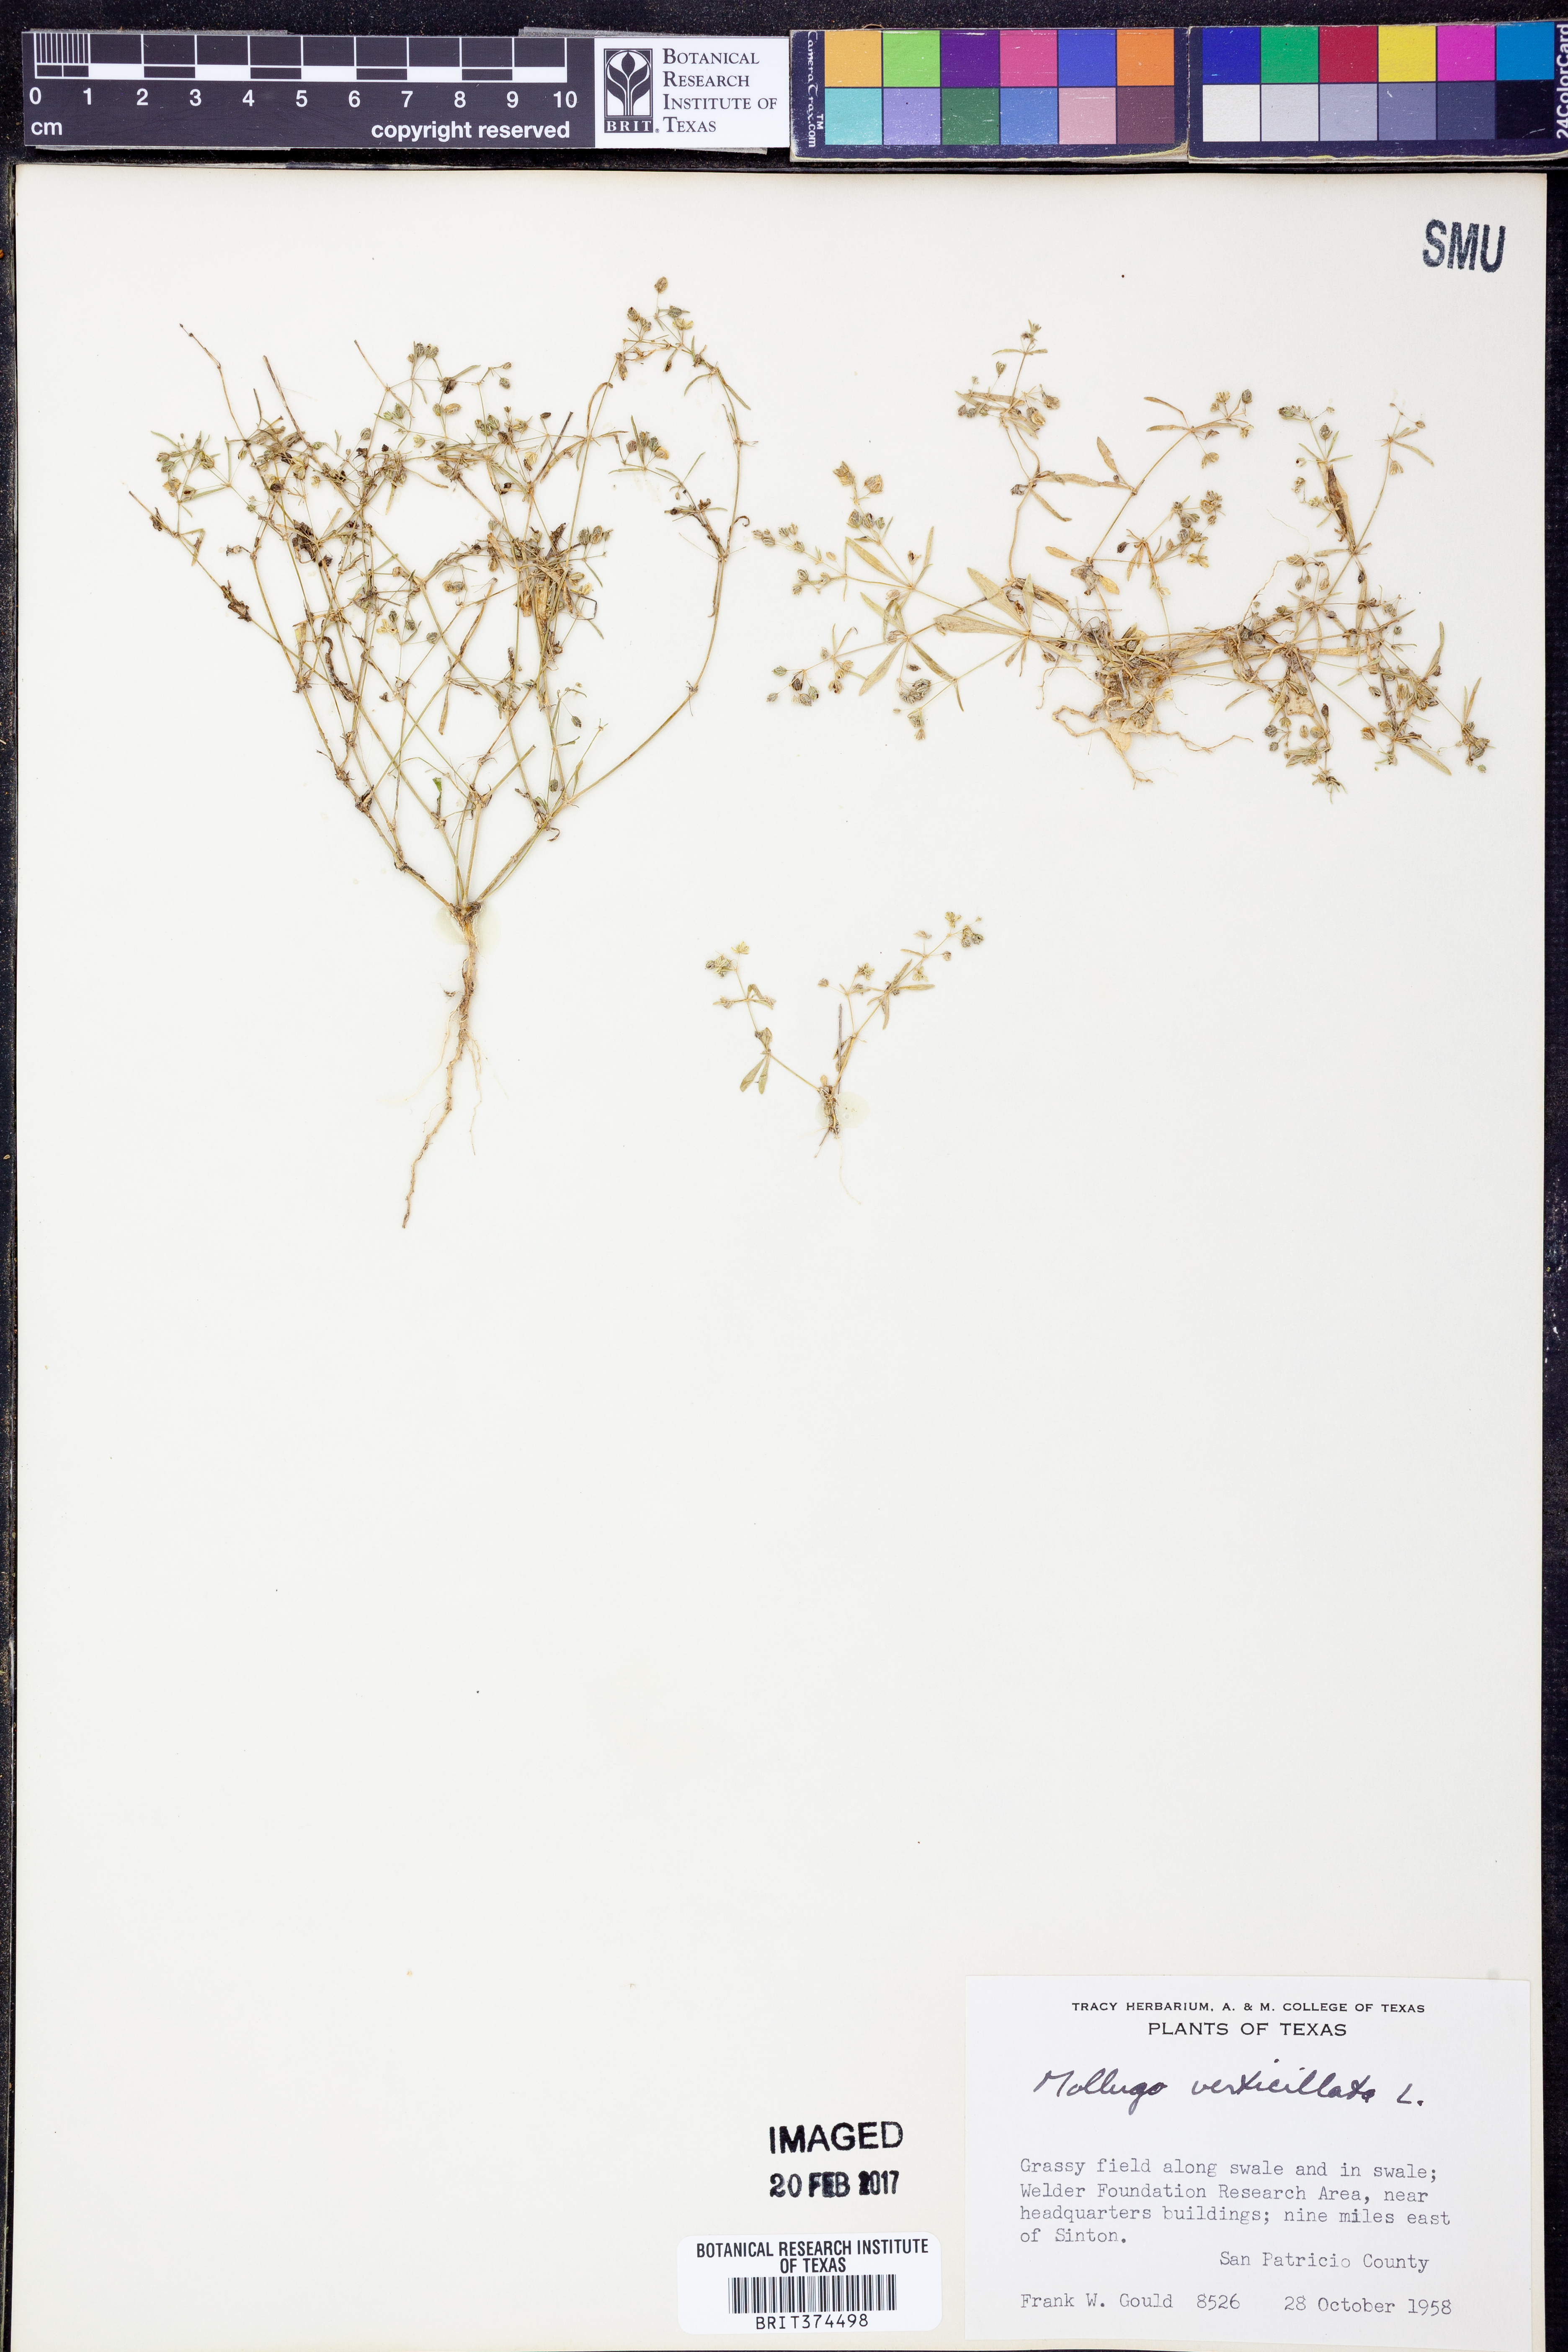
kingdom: Plantae
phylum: Tracheophyta
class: Magnoliopsida
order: Caryophyllales
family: Molluginaceae
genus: Mollugo
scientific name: Mollugo verticillata
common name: Green carpetweed
